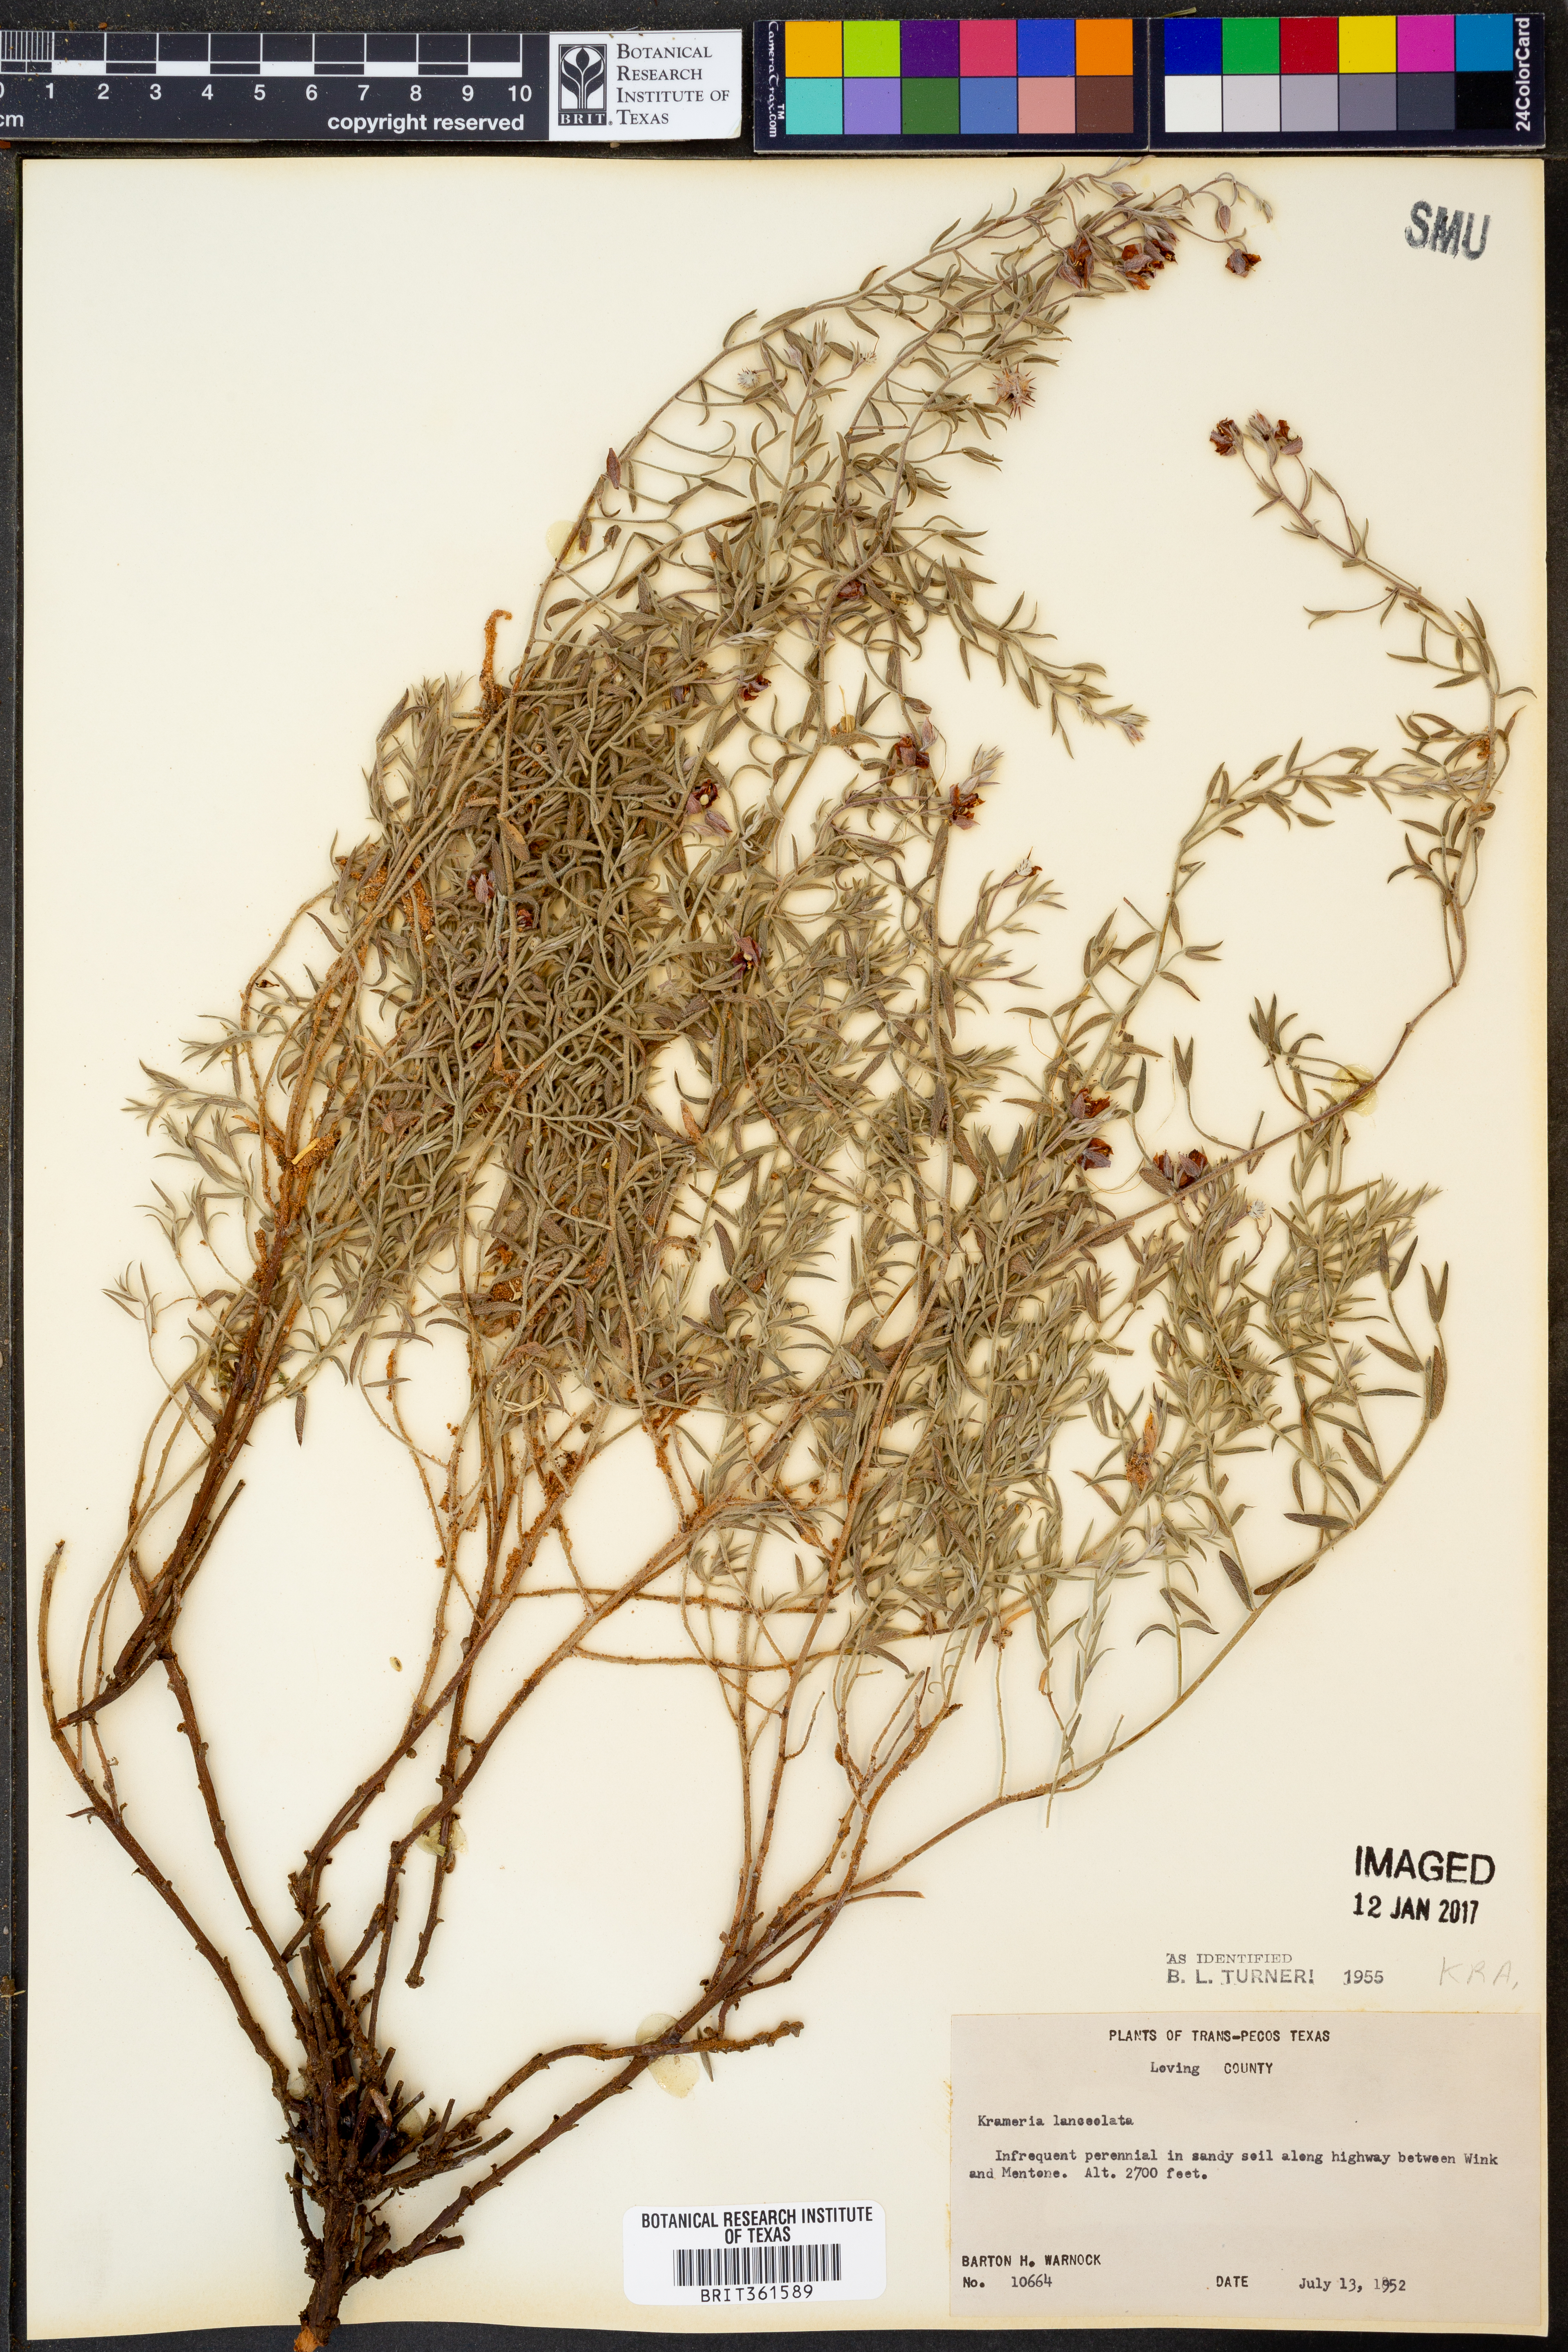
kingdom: Plantae
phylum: Tracheophyta
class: Magnoliopsida
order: Zygophyllales
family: Krameriaceae
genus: Krameria
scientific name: Krameria lanceolata
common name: Ratany
